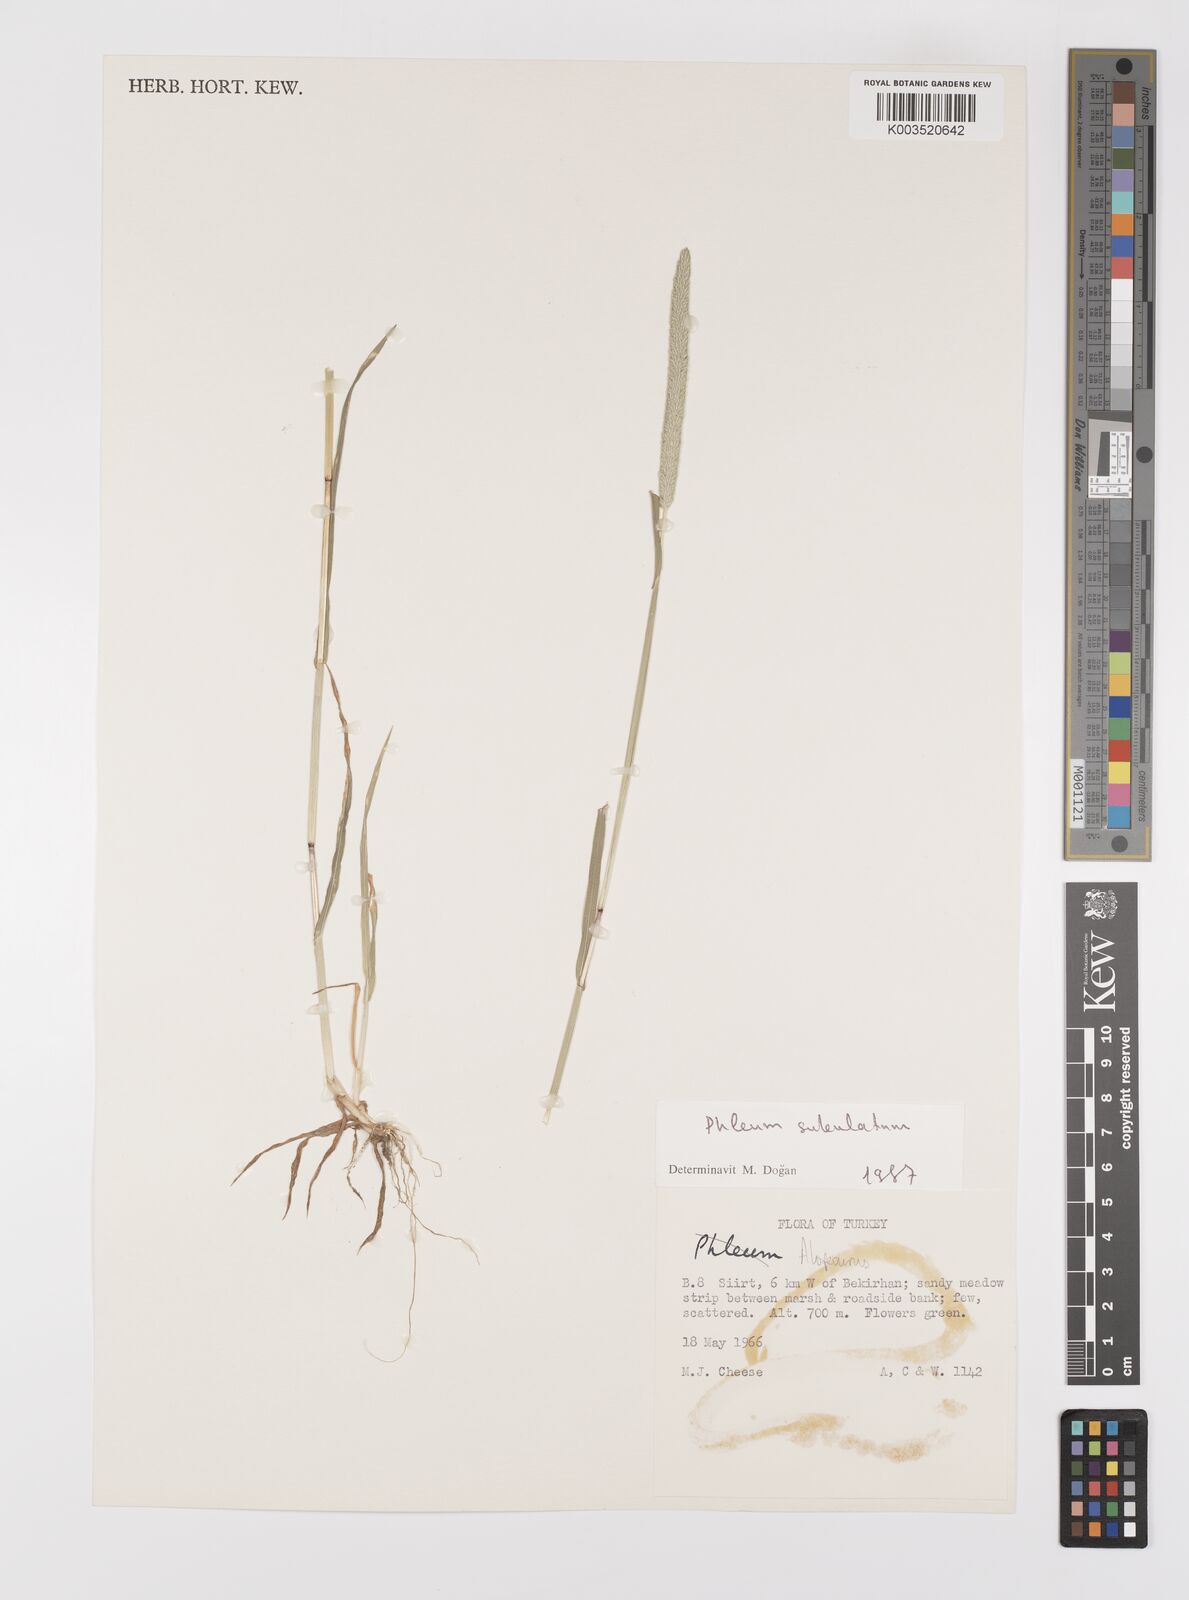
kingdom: Plantae
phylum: Tracheophyta
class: Liliopsida
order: Poales
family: Poaceae
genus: Alopecurus
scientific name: Alopecurus
